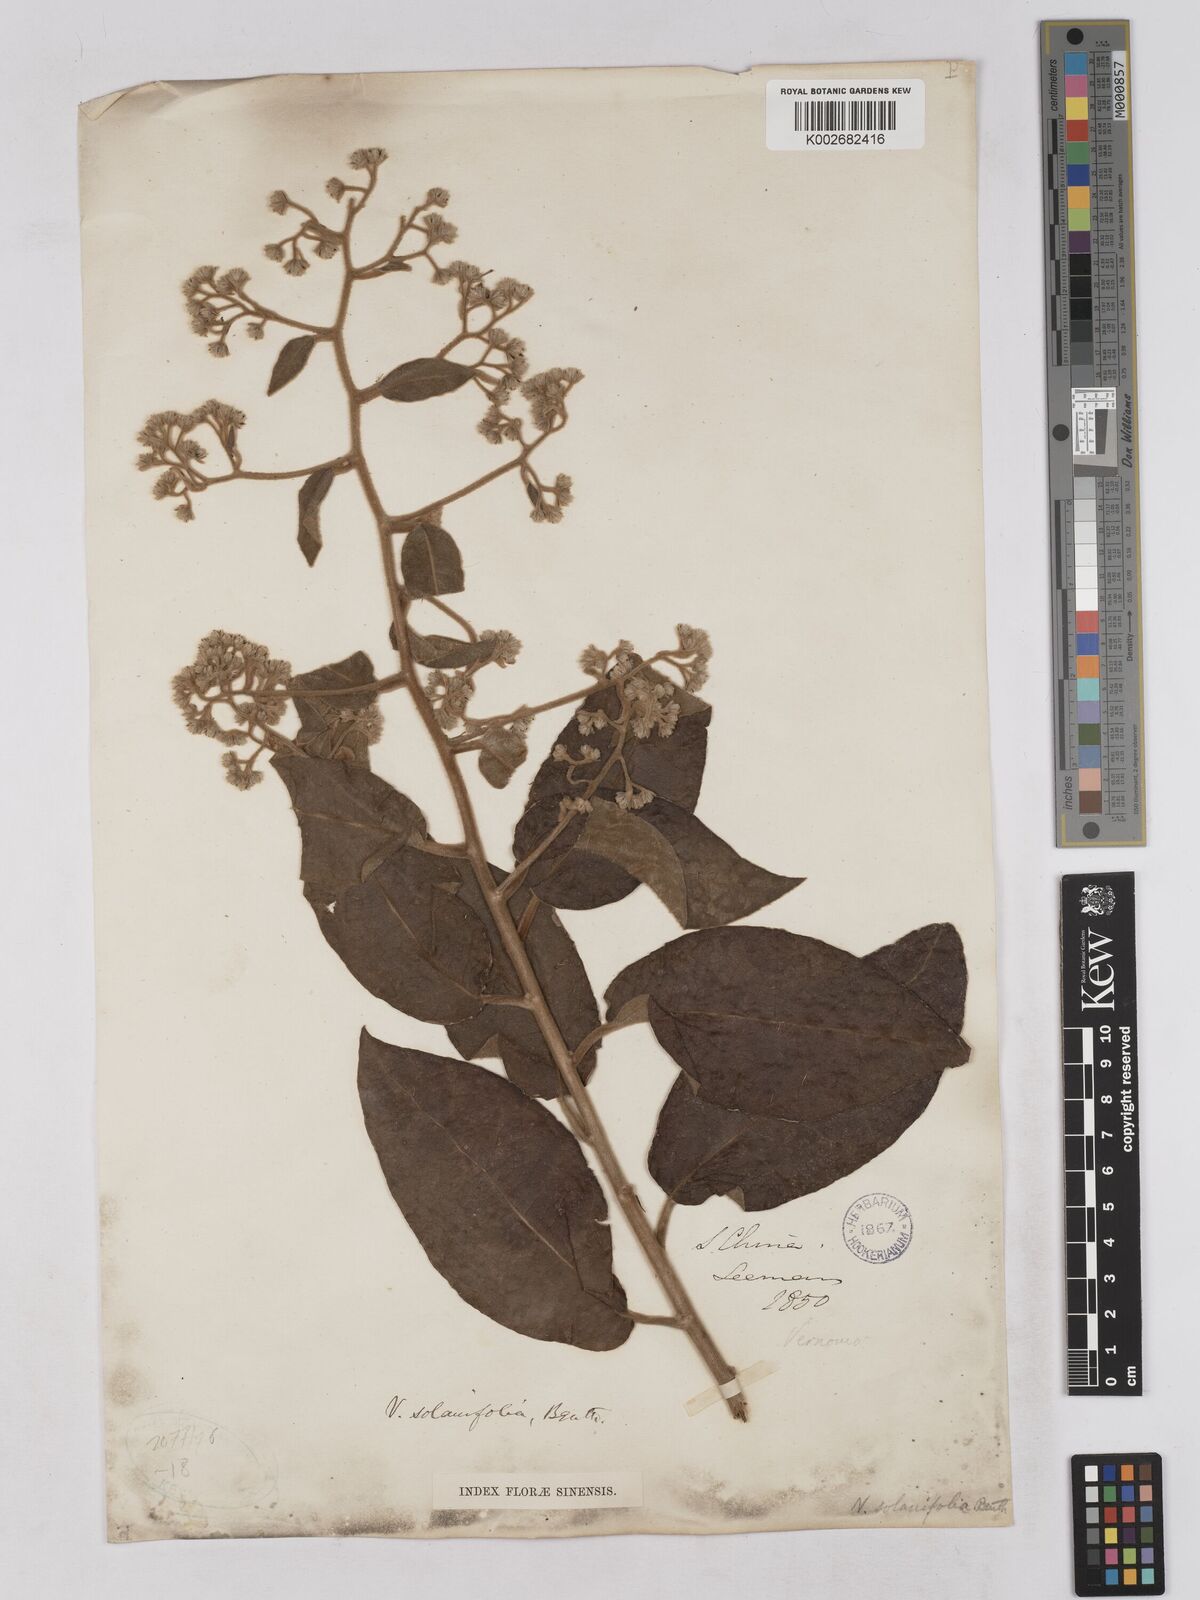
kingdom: Plantae
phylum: Tracheophyta
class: Magnoliopsida
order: Asterales
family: Asteraceae
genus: Strobocalyx
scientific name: Strobocalyx solanifolia
